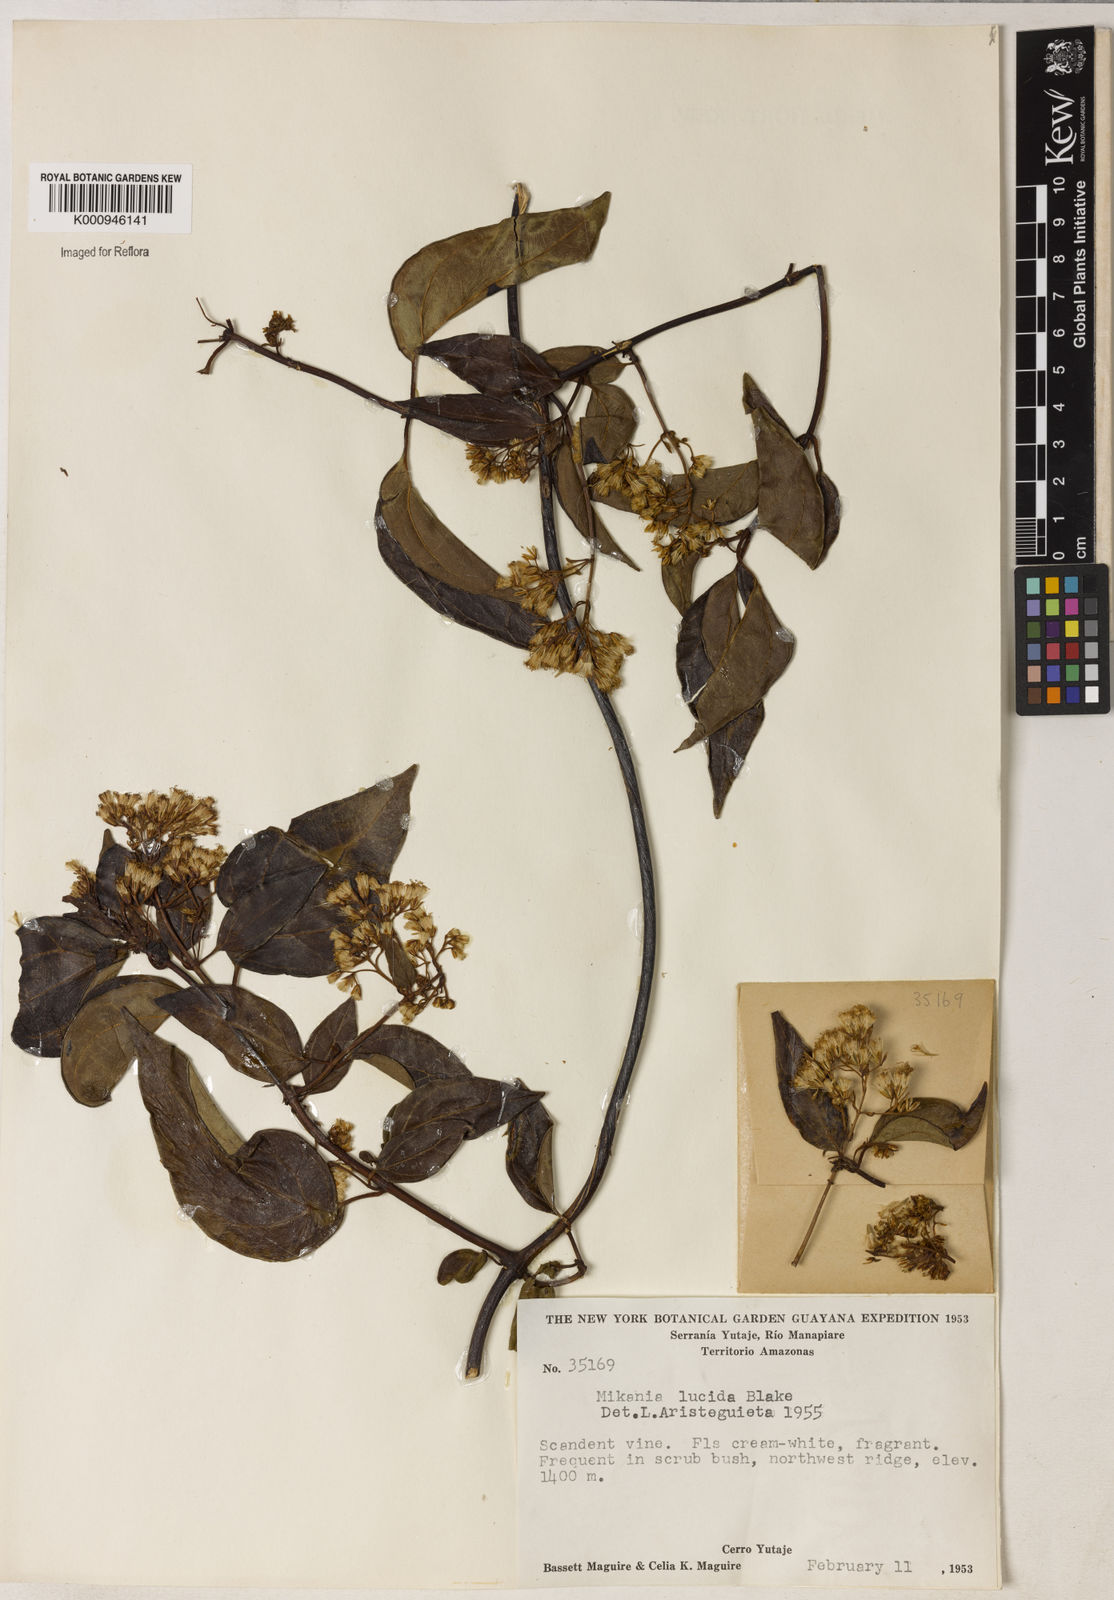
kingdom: Plantae
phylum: Tracheophyta
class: Magnoliopsida
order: Asterales
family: Asteraceae
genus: Mikania
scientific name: Mikania lucida
